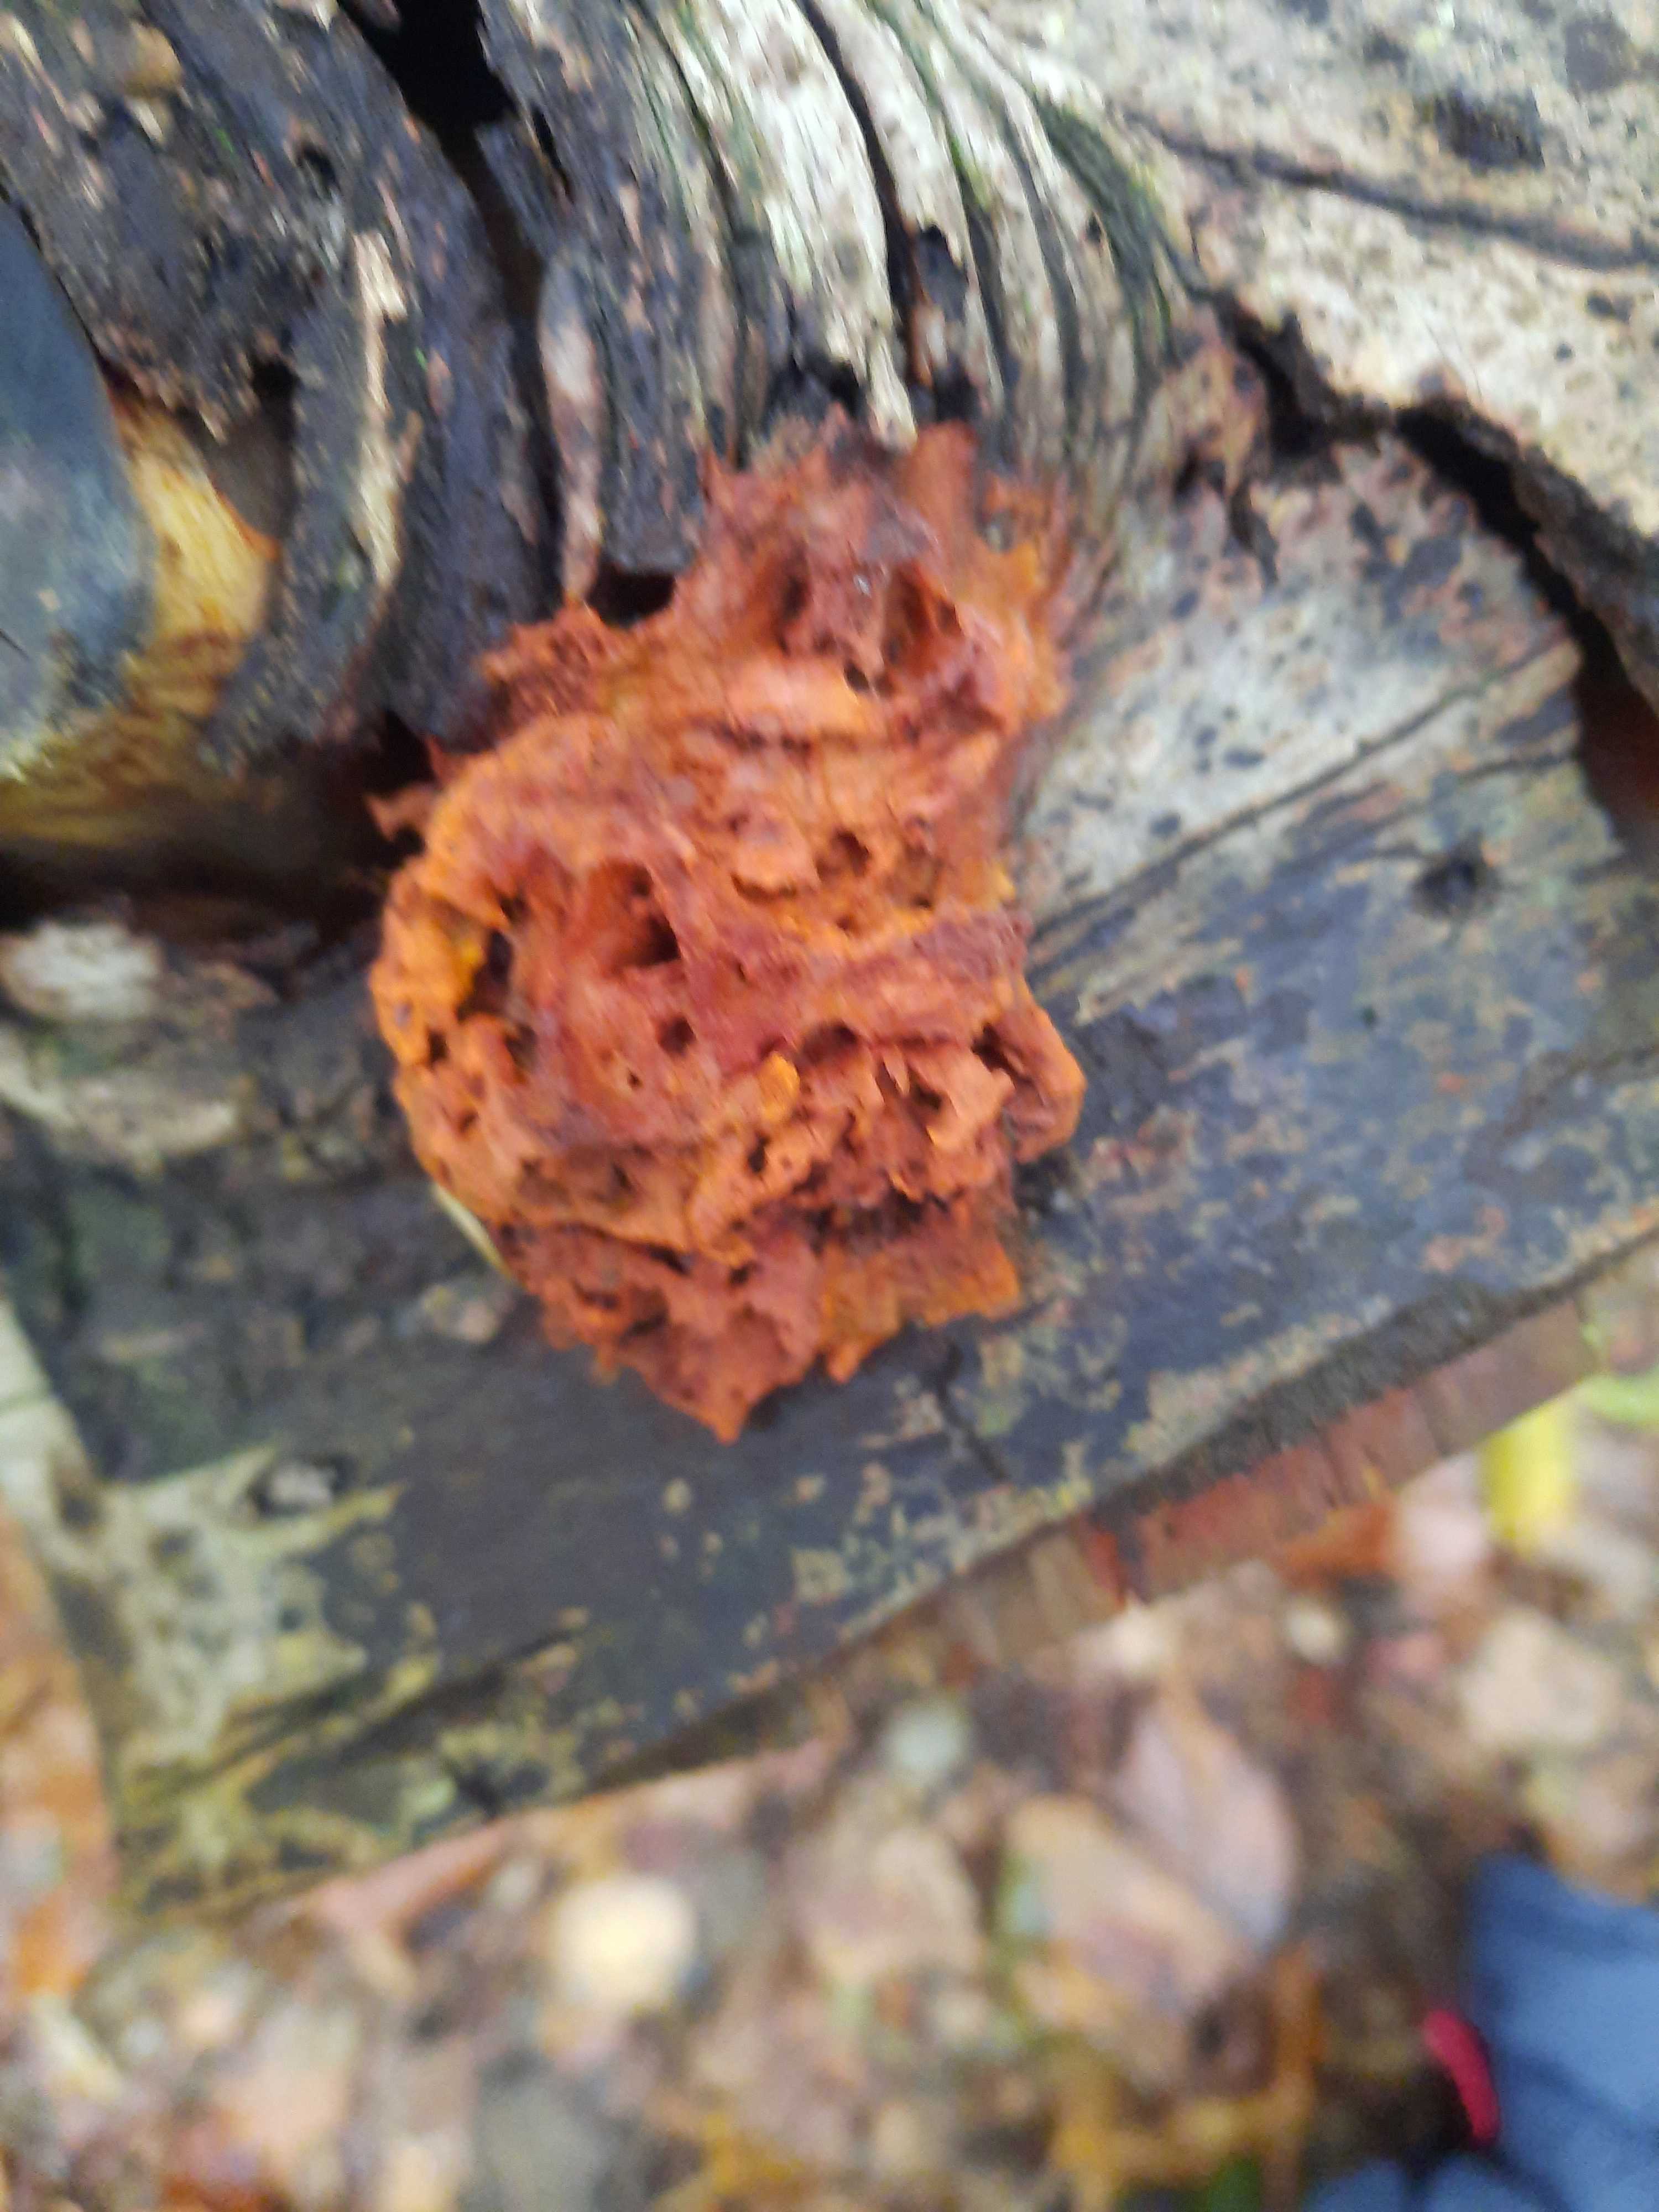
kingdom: Fungi
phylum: Basidiomycota
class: Agaricomycetes
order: Polyporales
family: Pycnoporellaceae
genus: Pycnoporellus
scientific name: Pycnoporellus fulgens
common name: flammeporesvamp
